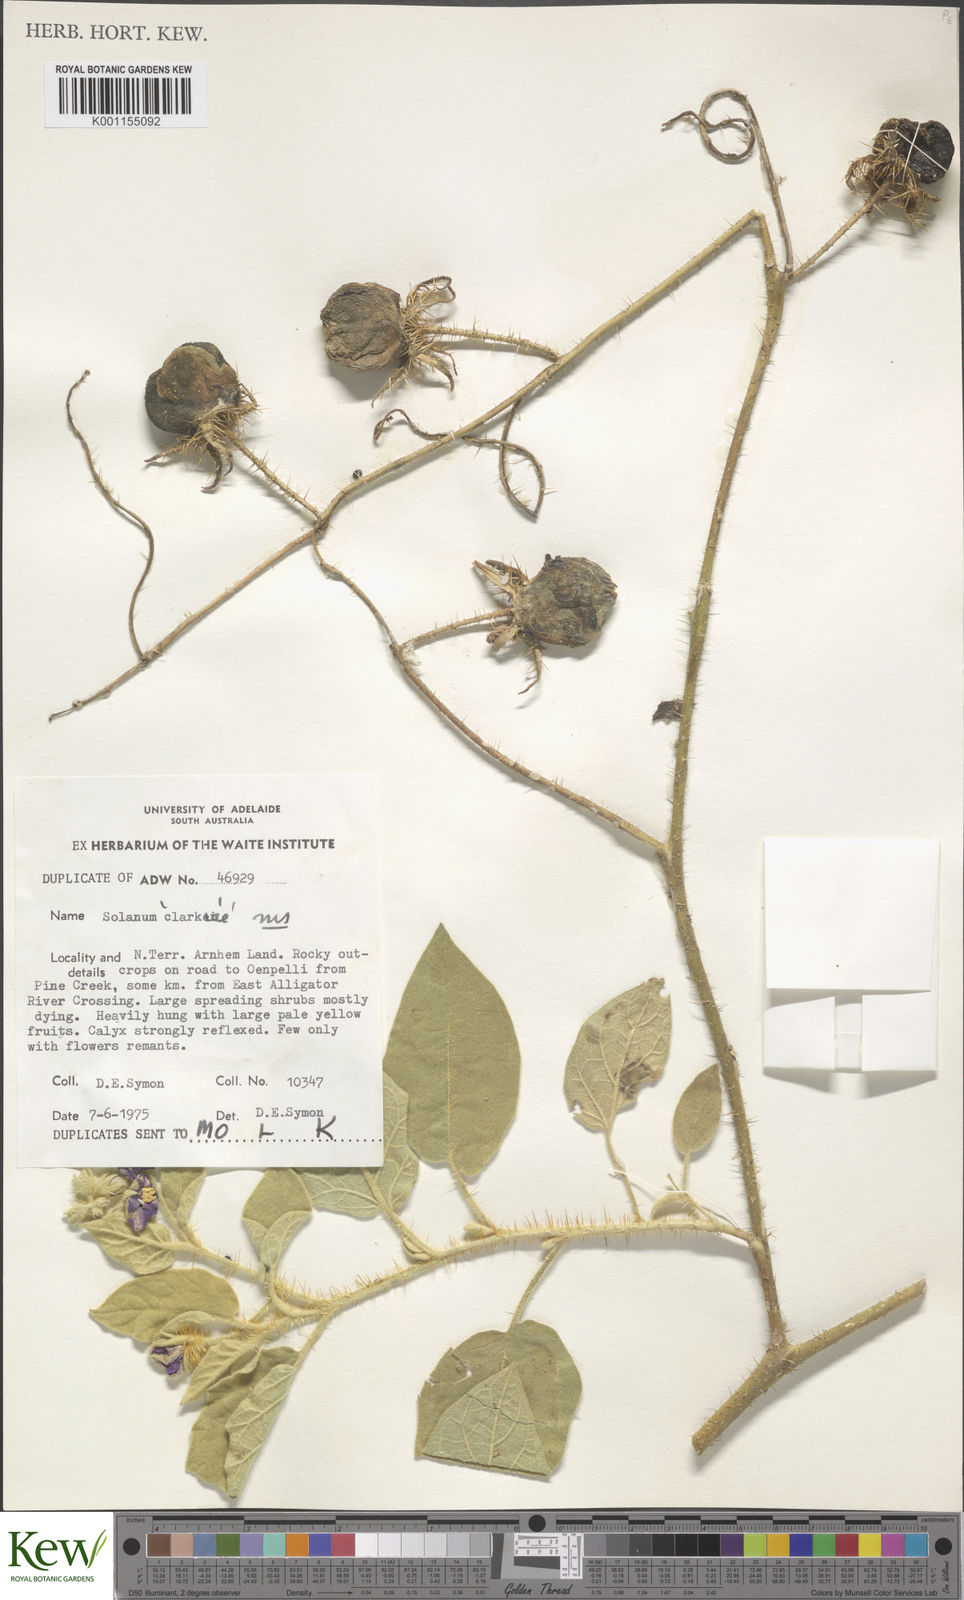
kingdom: Plantae
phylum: Tracheophyta
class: Magnoliopsida
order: Solanales
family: Solanaceae
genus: Solanum
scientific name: Solanum clarkiae
